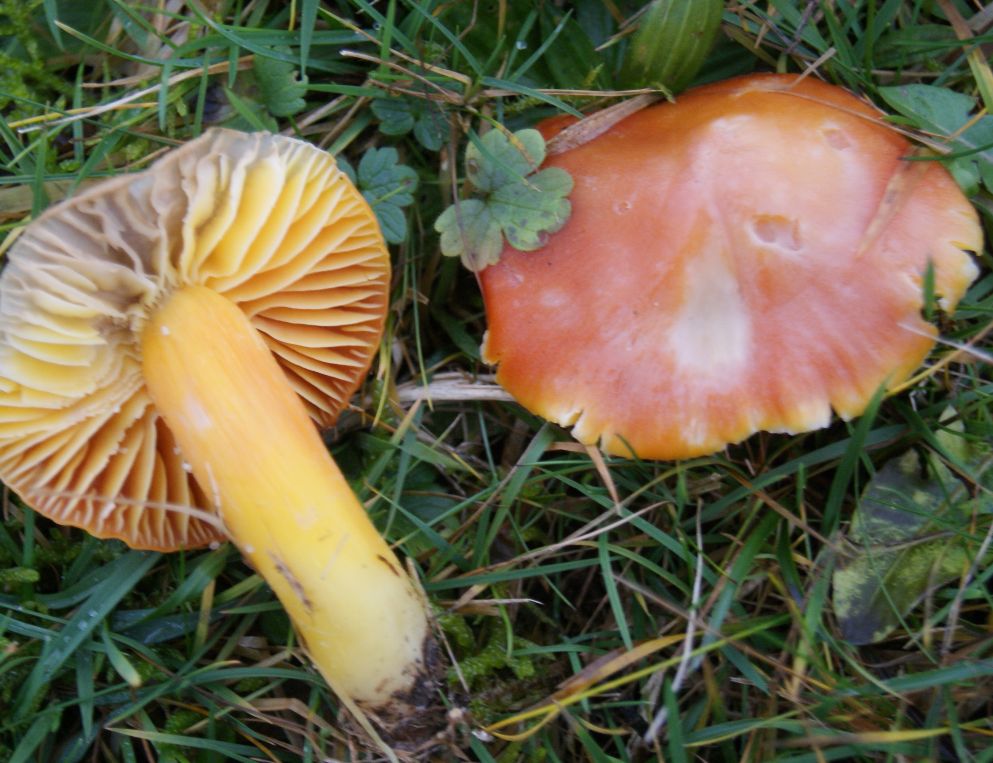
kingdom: Fungi
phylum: Basidiomycota
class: Agaricomycetes
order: Agaricales
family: Hygrophoraceae
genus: Hygrocybe
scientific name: Hygrocybe punicea
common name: skarlagen-vokshat
